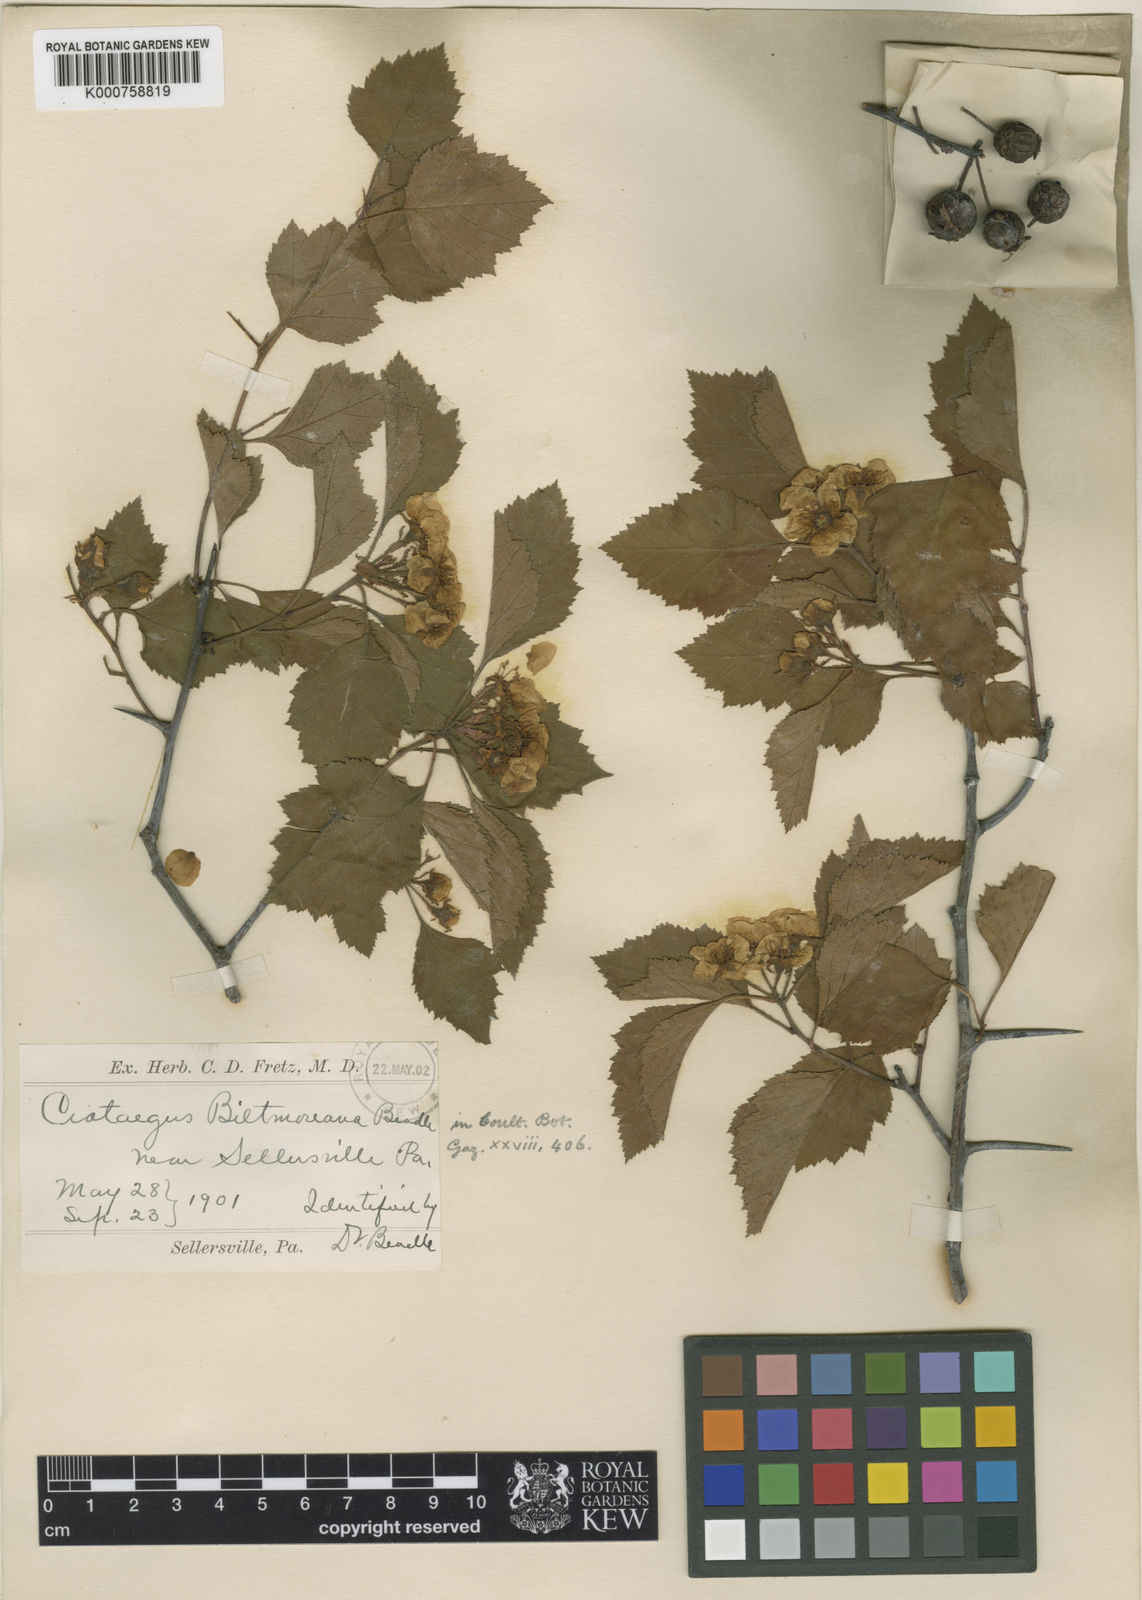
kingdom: Plantae
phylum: Tracheophyta
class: Magnoliopsida
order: Rosales
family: Rosaceae
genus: Crataegus
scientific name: Crataegus intricata
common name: Biltmore hawthorn
